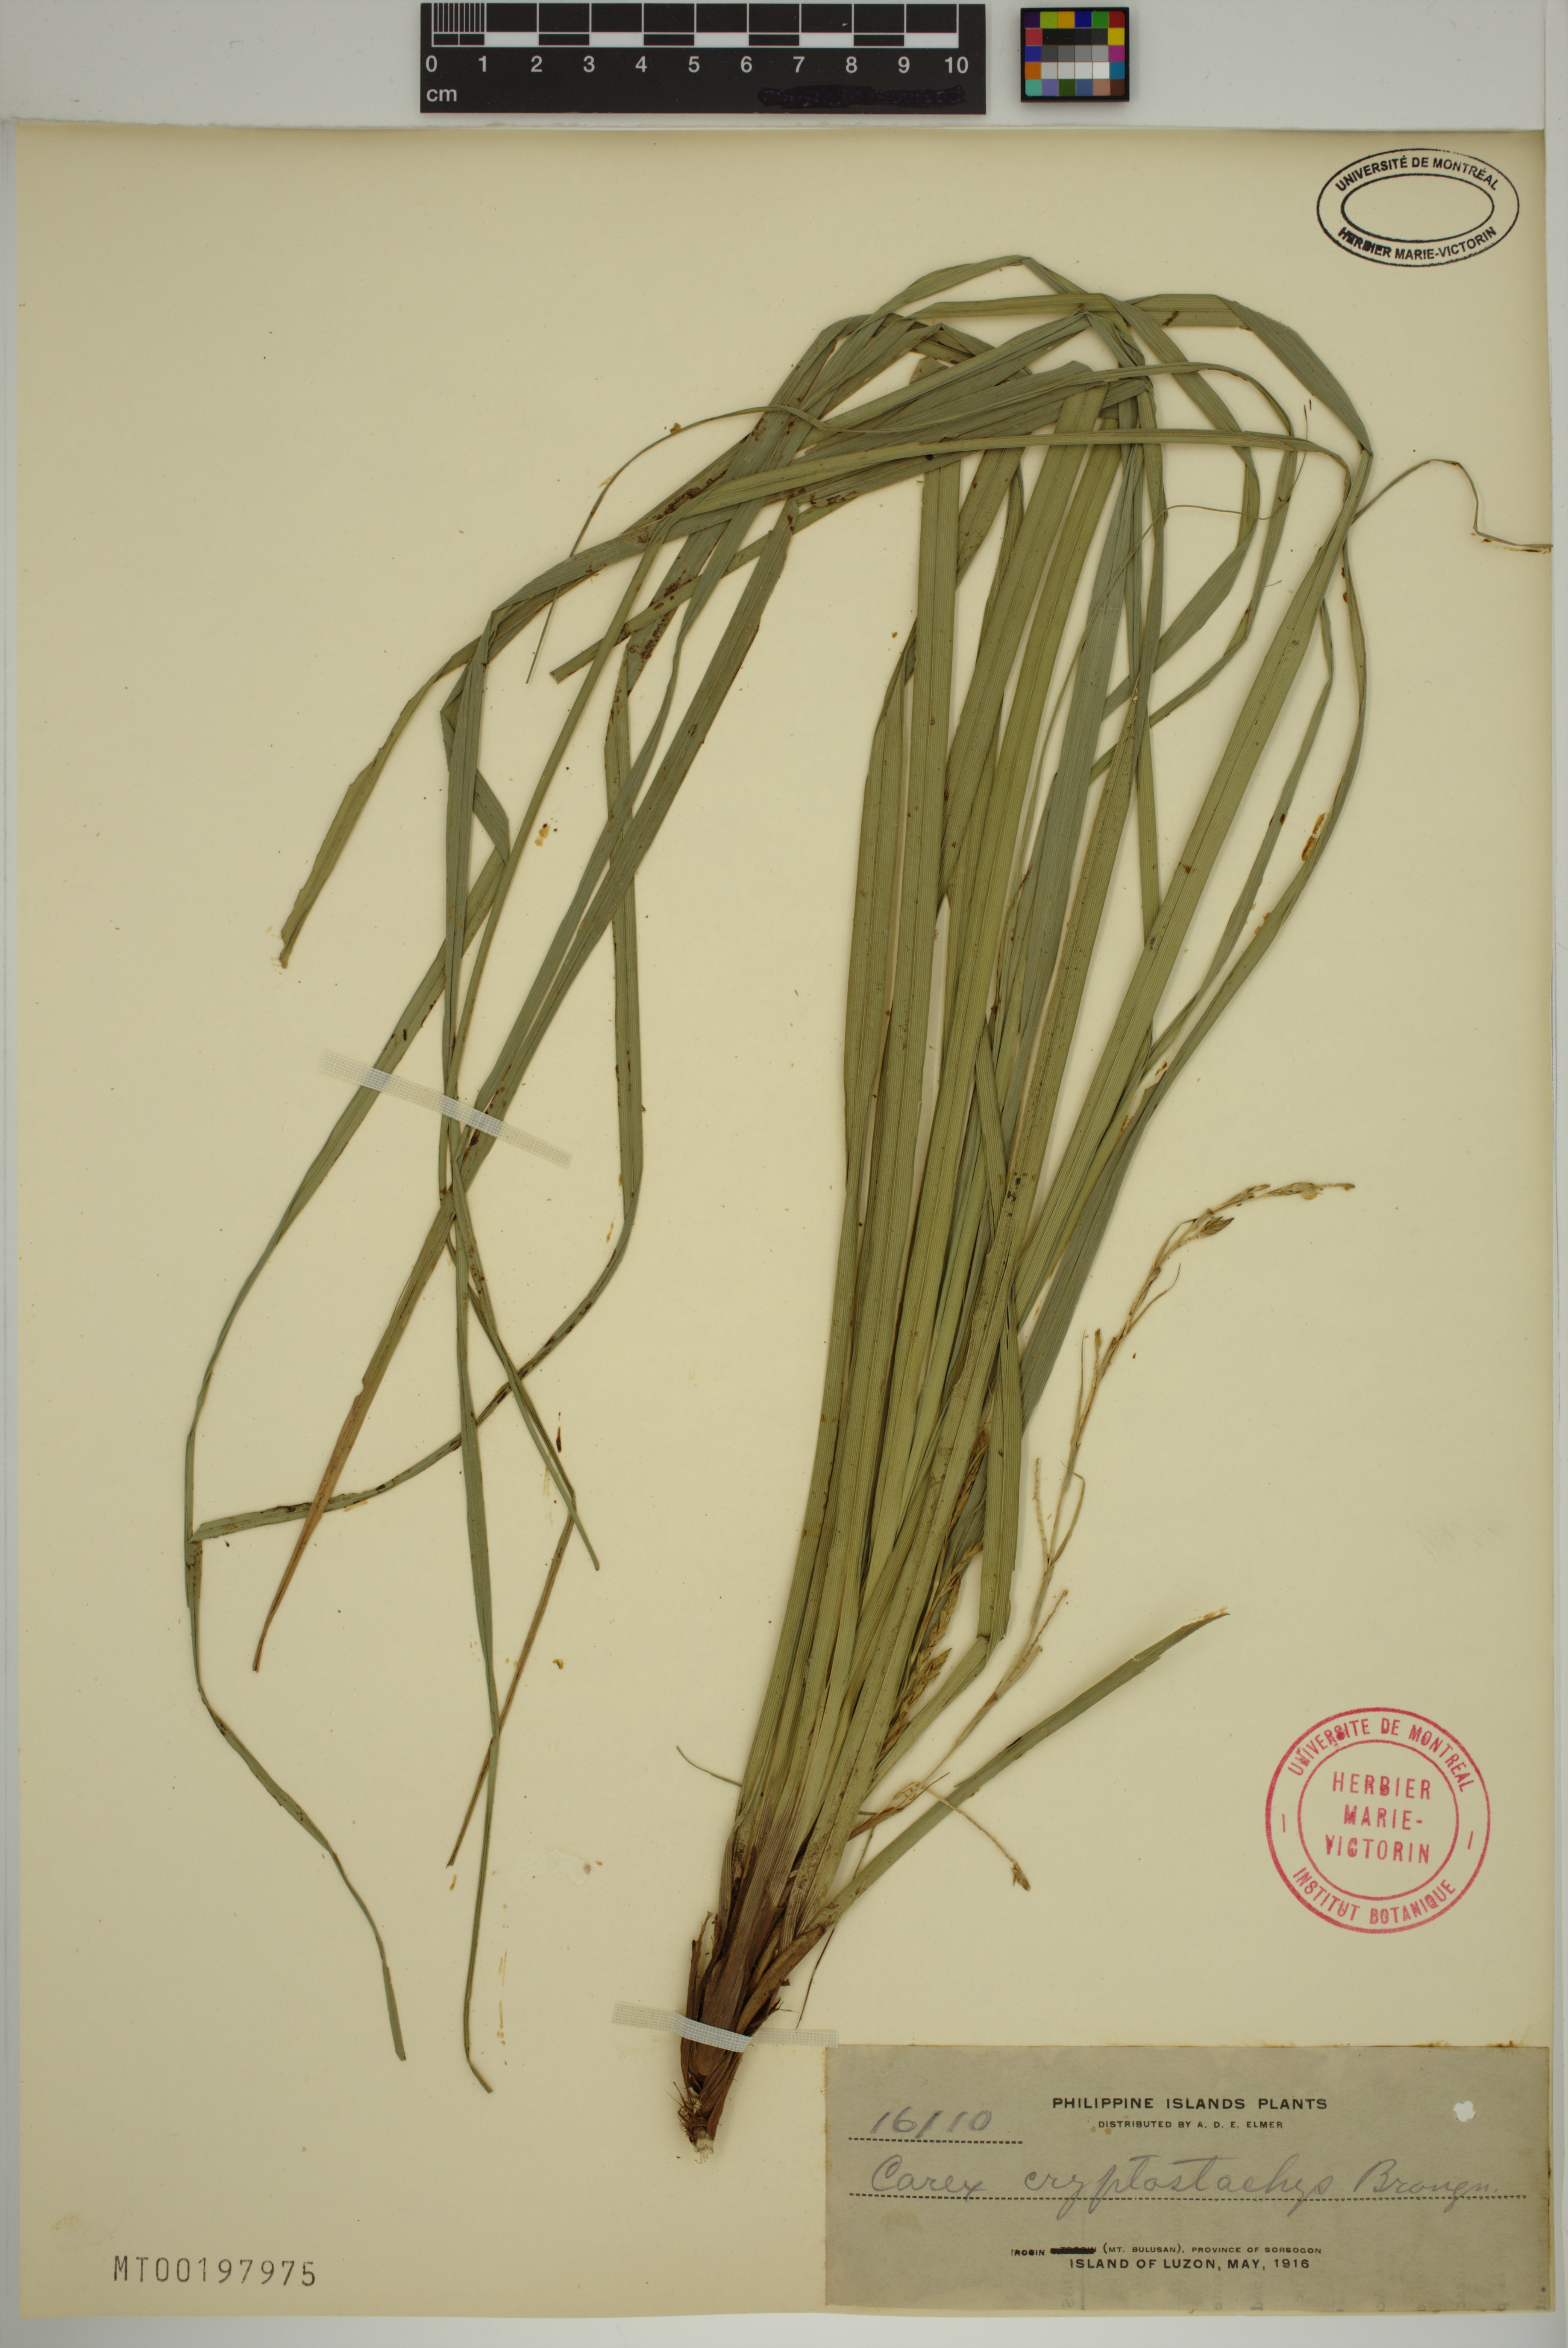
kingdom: Plantae
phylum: Tracheophyta
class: Liliopsida
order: Poales
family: Cyperaceae
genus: Carex
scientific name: Carex cryptostachys
